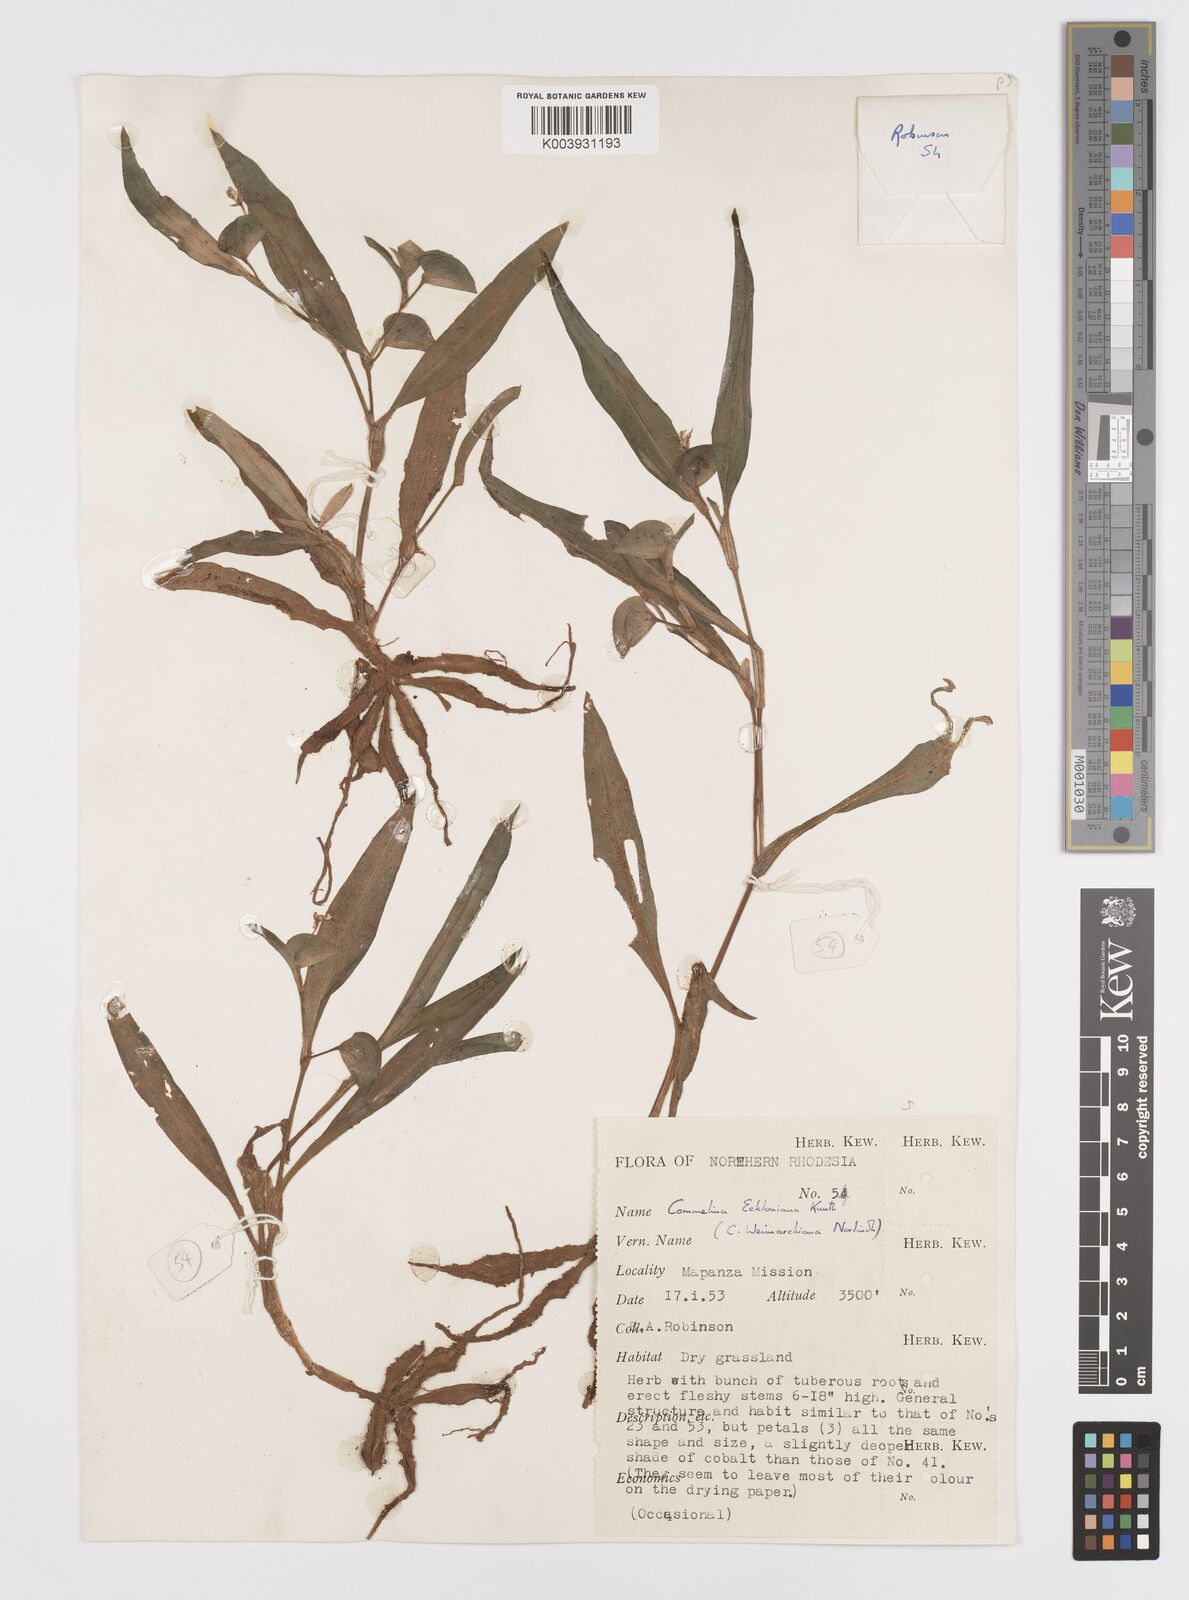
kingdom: Plantae
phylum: Tracheophyta
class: Liliopsida
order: Commelinales
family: Commelinaceae
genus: Commelina
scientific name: Commelina eckloniana
